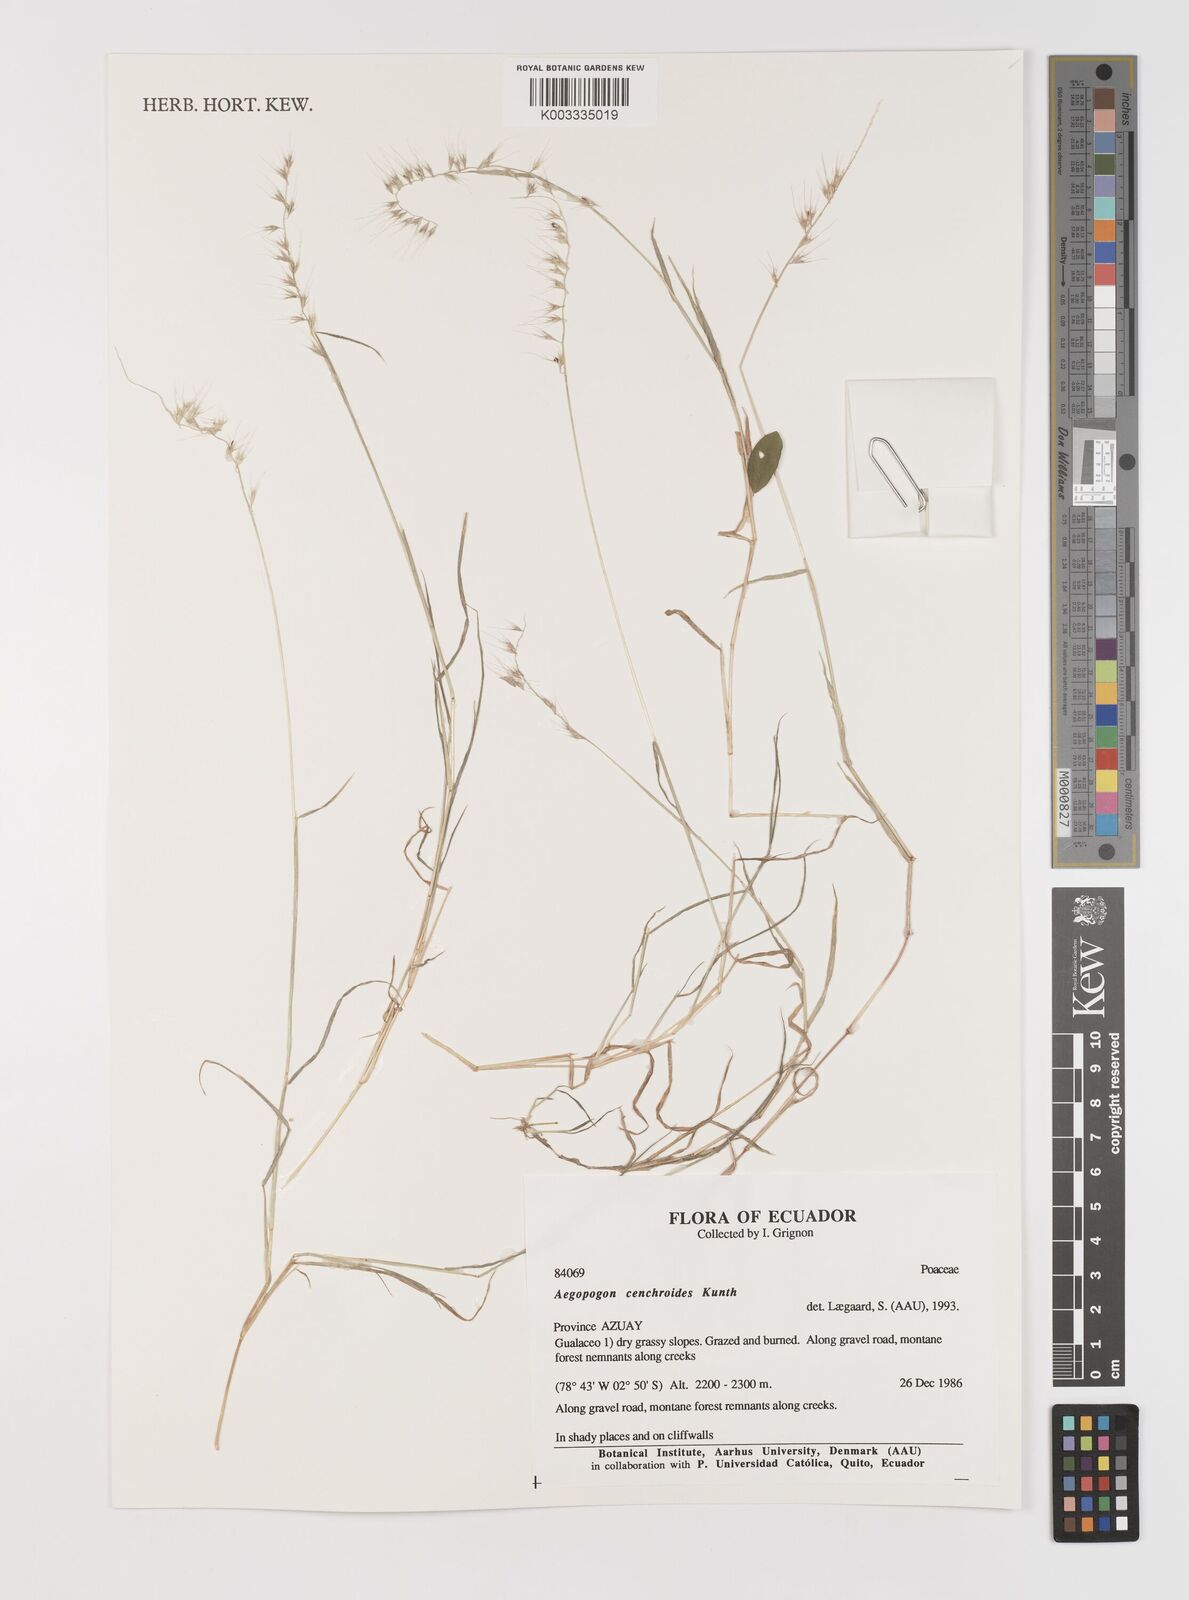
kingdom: Plantae
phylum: Tracheophyta
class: Liliopsida
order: Poales
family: Poaceae
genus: Muhlenbergia
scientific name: Muhlenbergia cenchroides
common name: Relaxgrass
